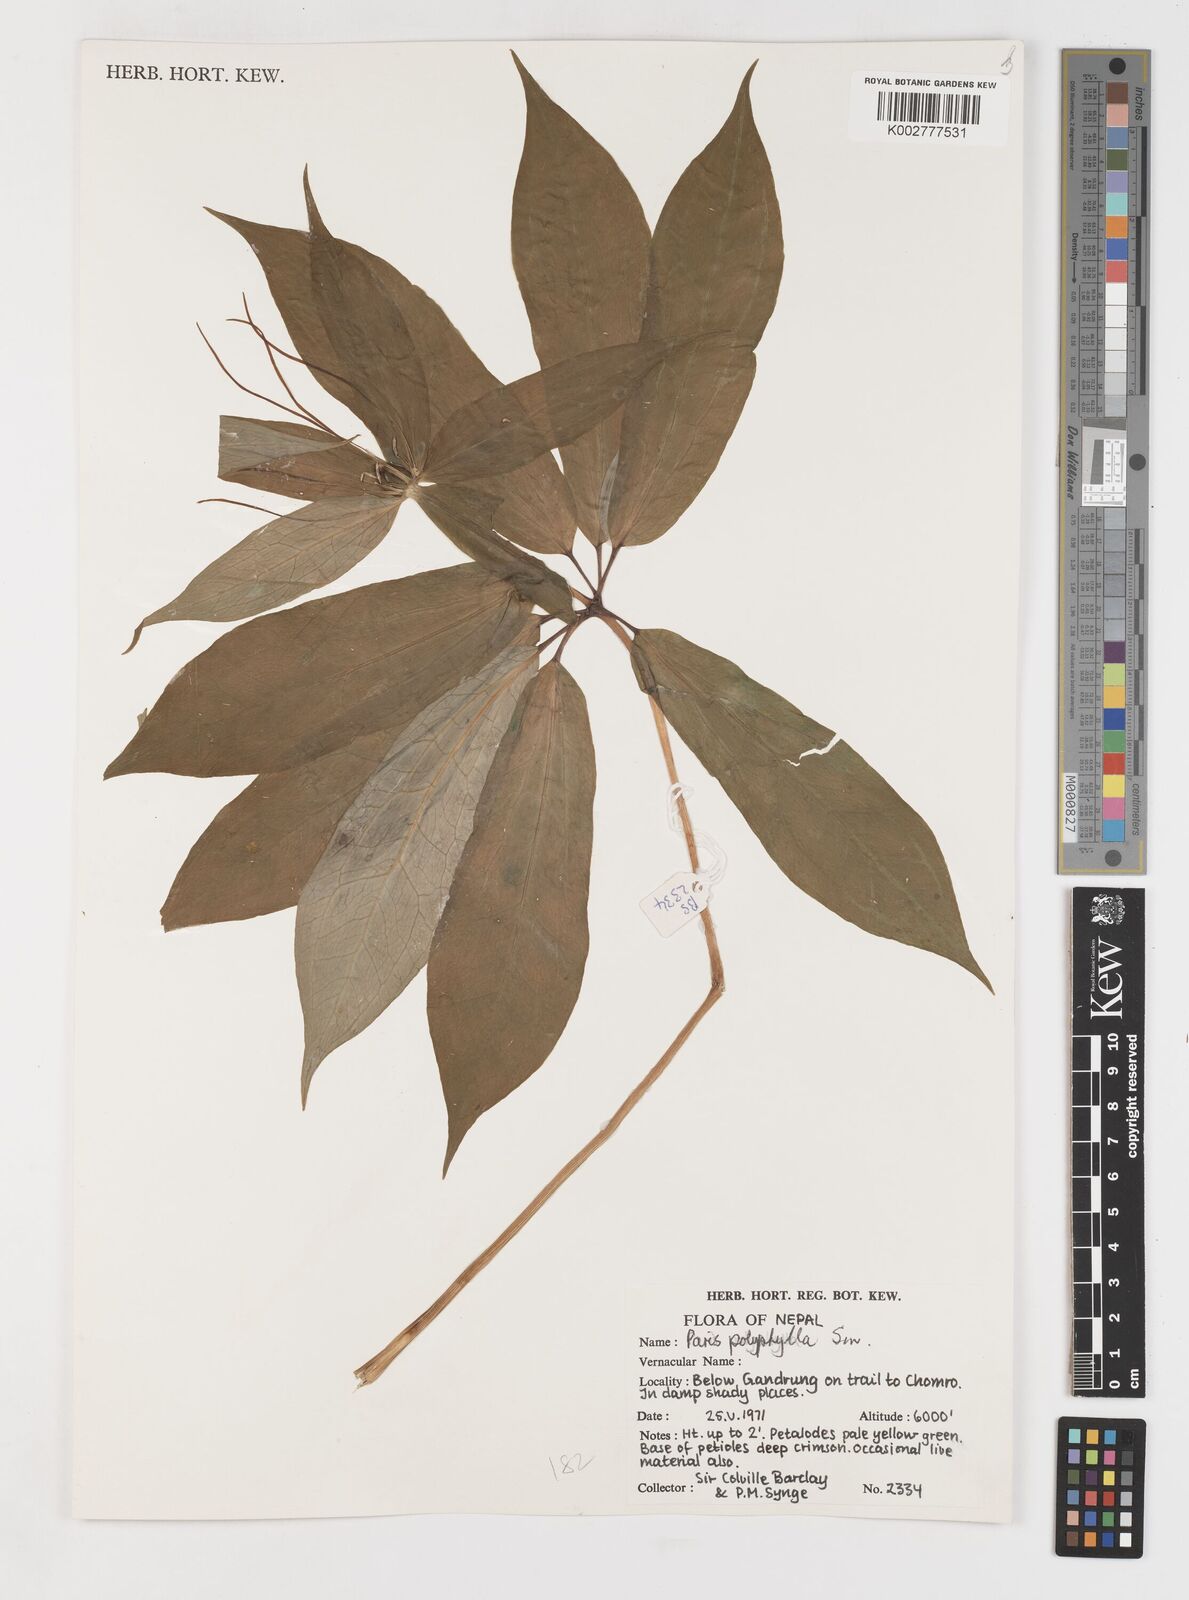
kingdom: Plantae
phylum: Tracheophyta
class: Liliopsida
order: Liliales
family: Melanthiaceae
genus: Paris
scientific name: Paris polyphylla
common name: Love apple
